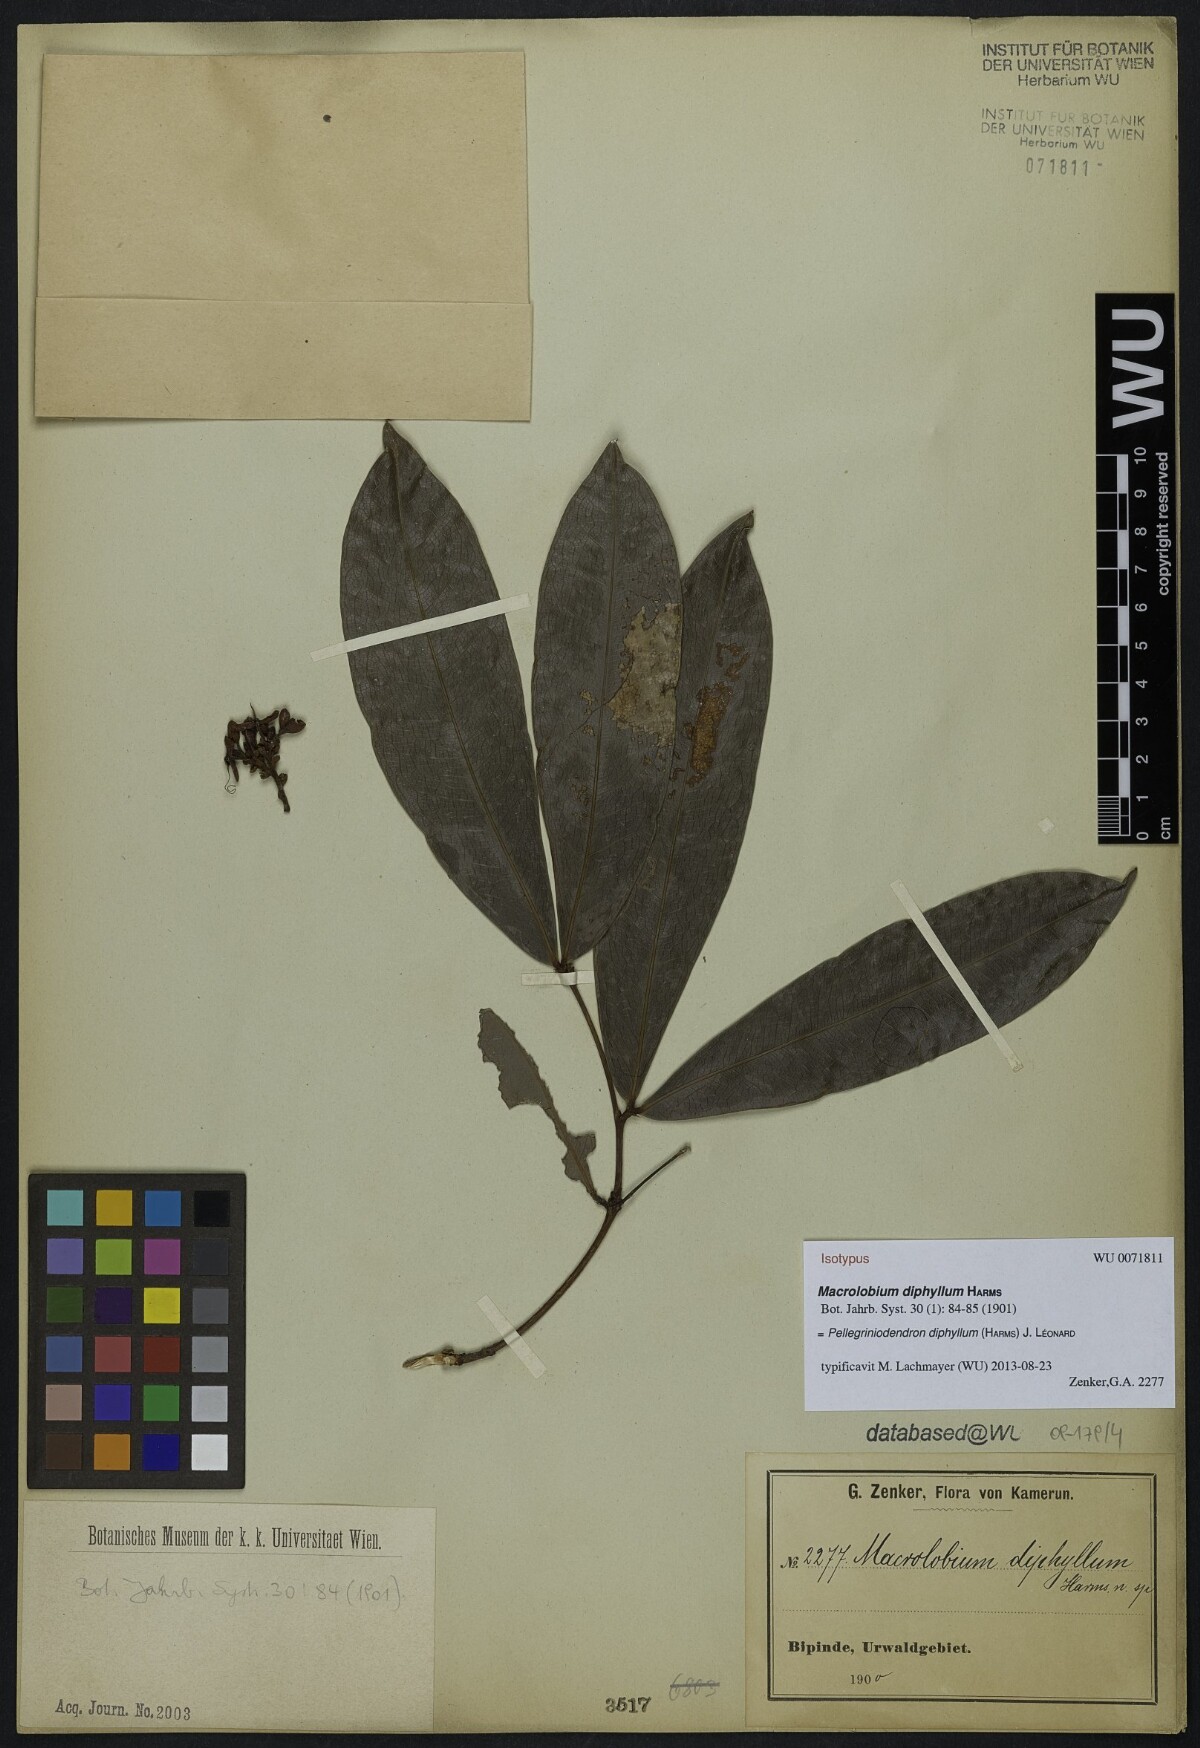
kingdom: Plantae
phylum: Tracheophyta
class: Magnoliopsida
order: Fabales
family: Fabaceae
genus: Gilbertiodendron
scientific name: Gilbertiodendron diphyllum
